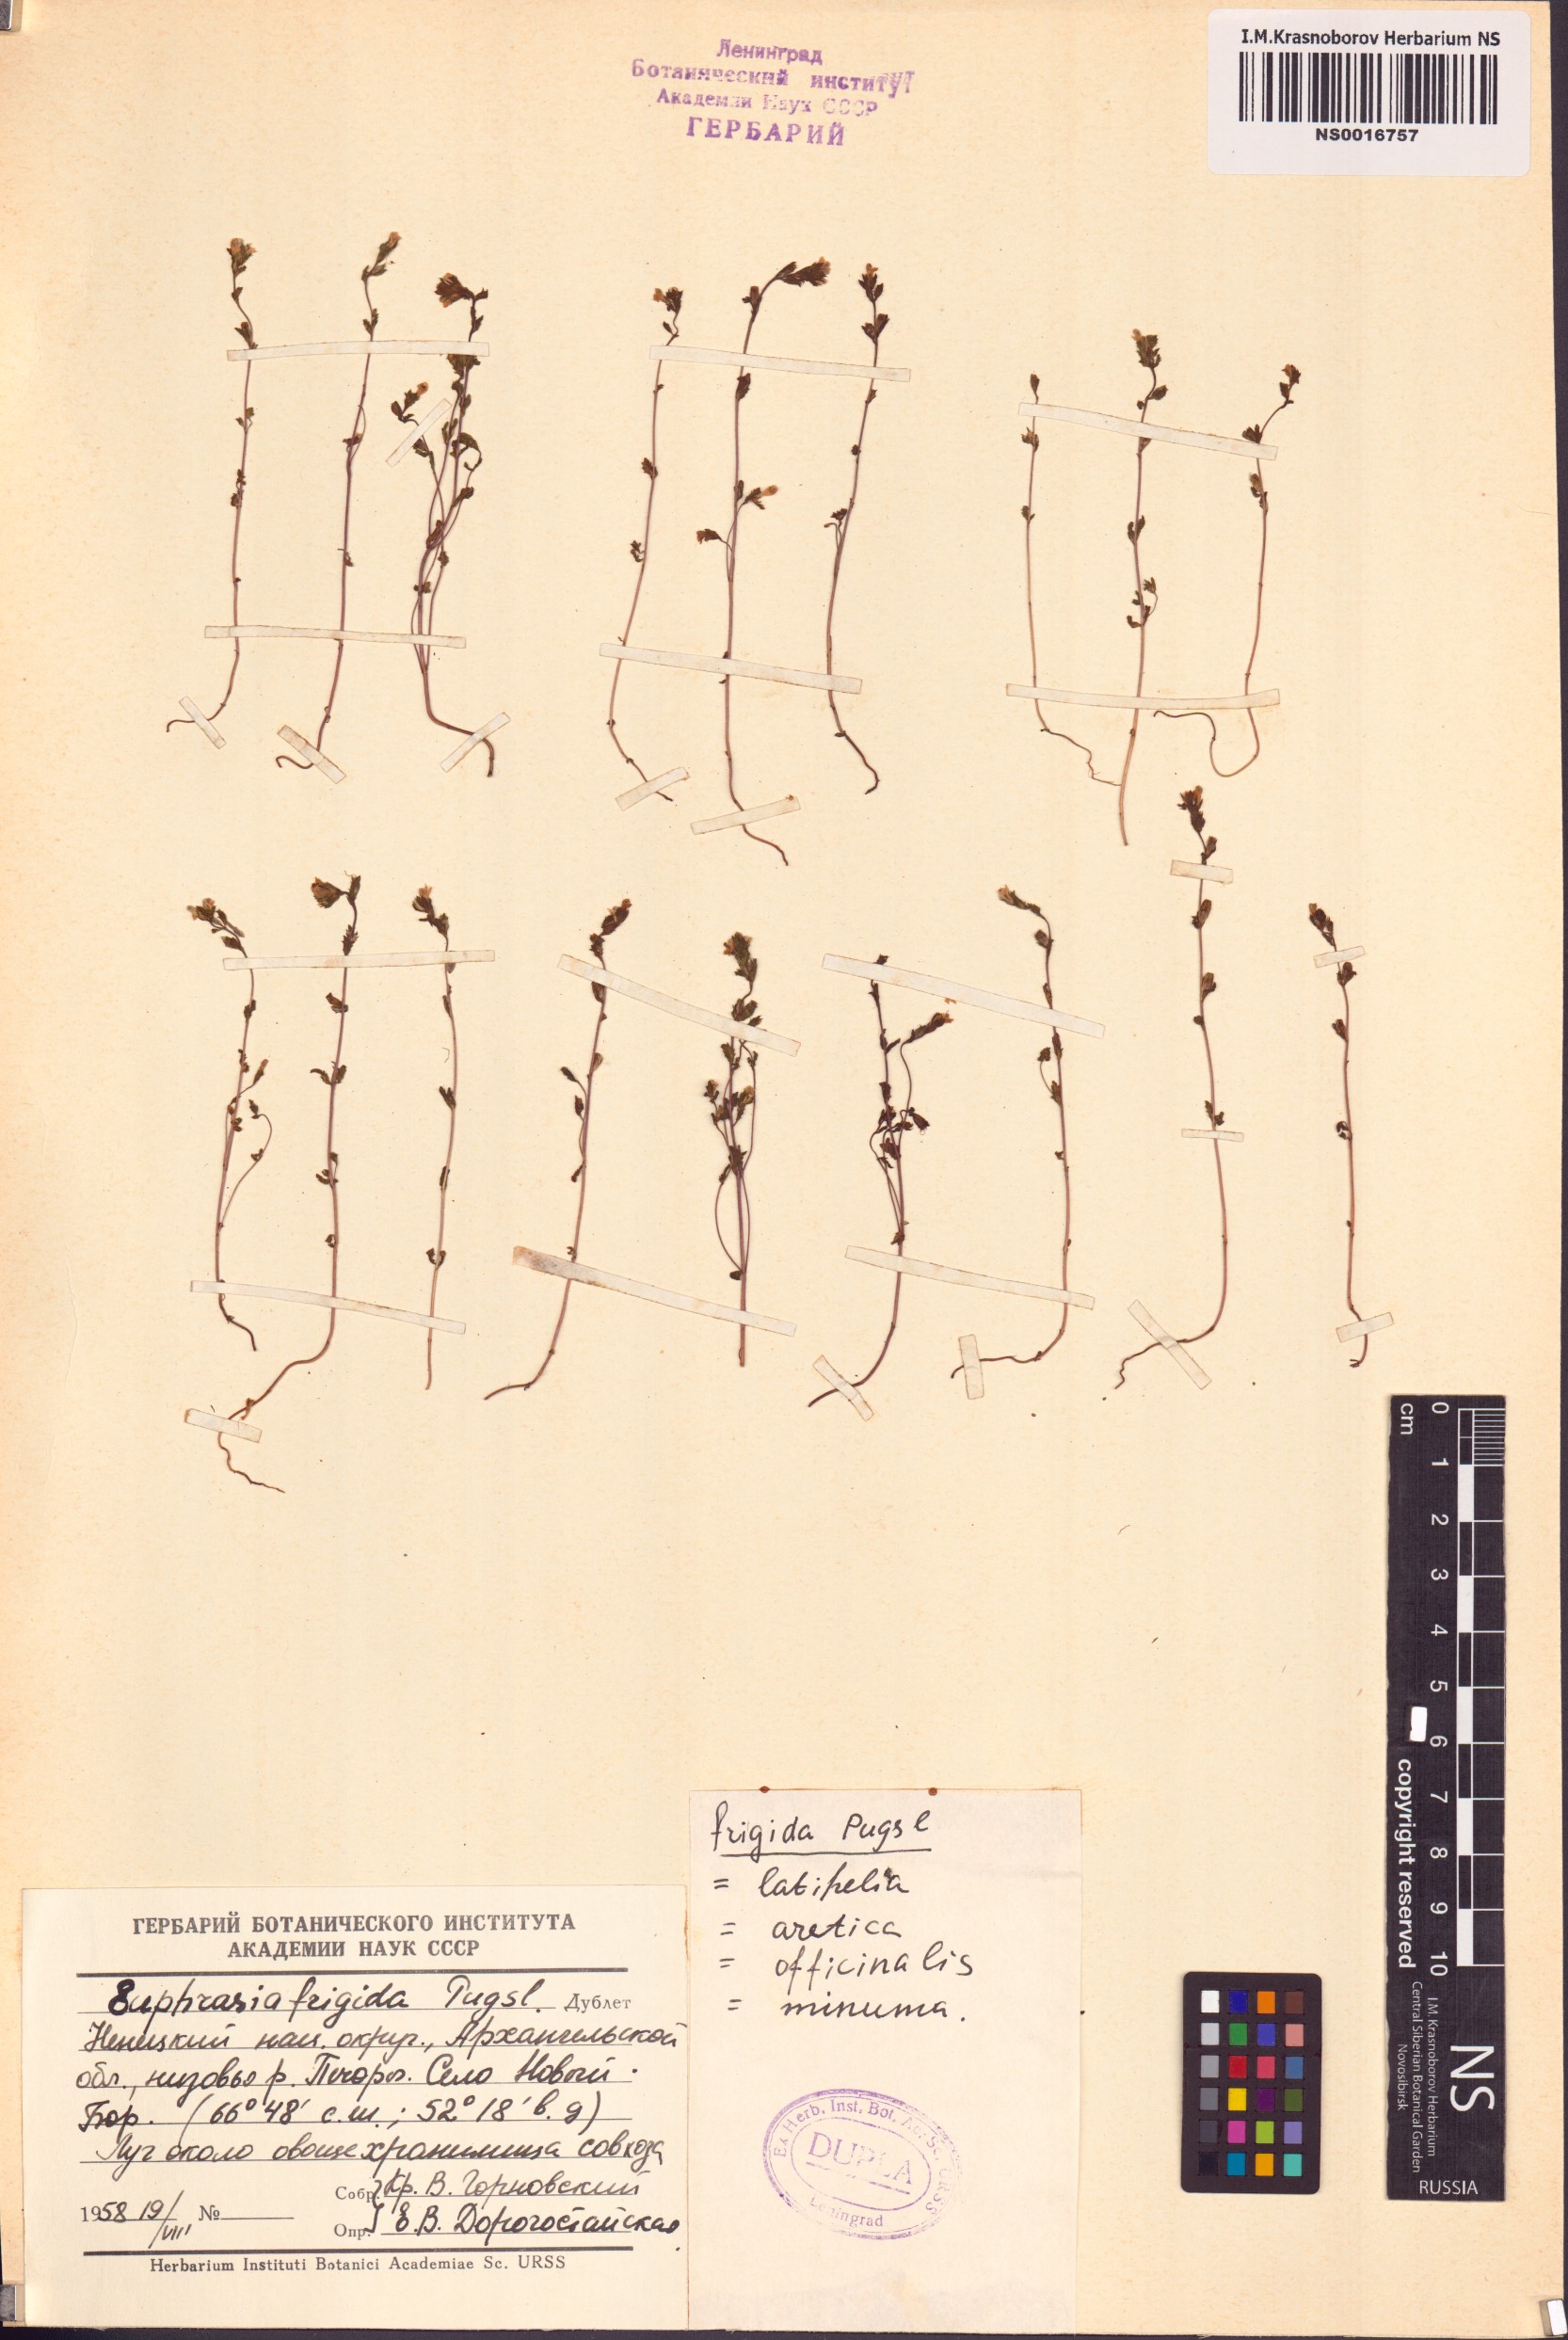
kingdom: Plantae
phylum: Tracheophyta
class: Magnoliopsida
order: Lamiales
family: Orobanchaceae
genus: Euphrasia
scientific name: Euphrasia frigida
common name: An eyebright
